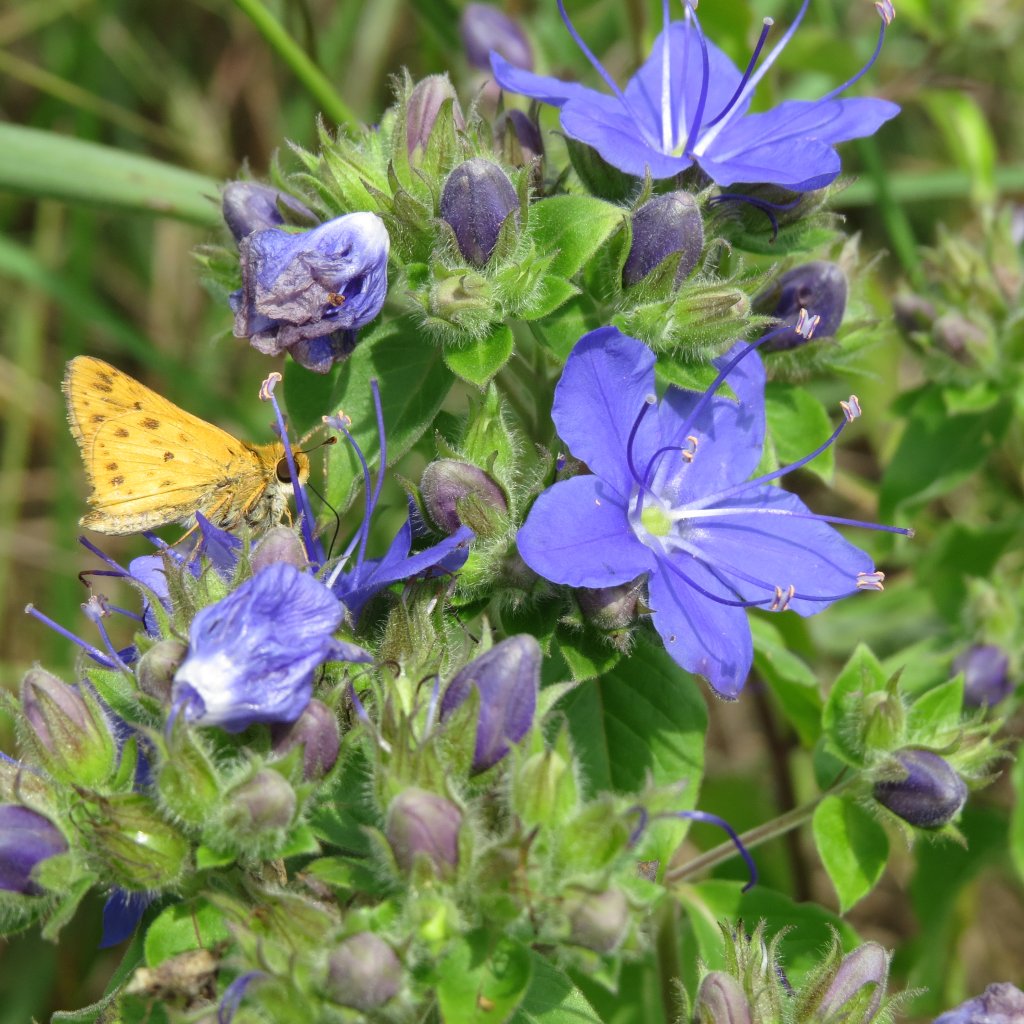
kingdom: Animalia
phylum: Arthropoda
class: Insecta
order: Lepidoptera
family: Hesperiidae
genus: Hylephila
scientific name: Hylephila phyleus
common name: Fiery Skipper
